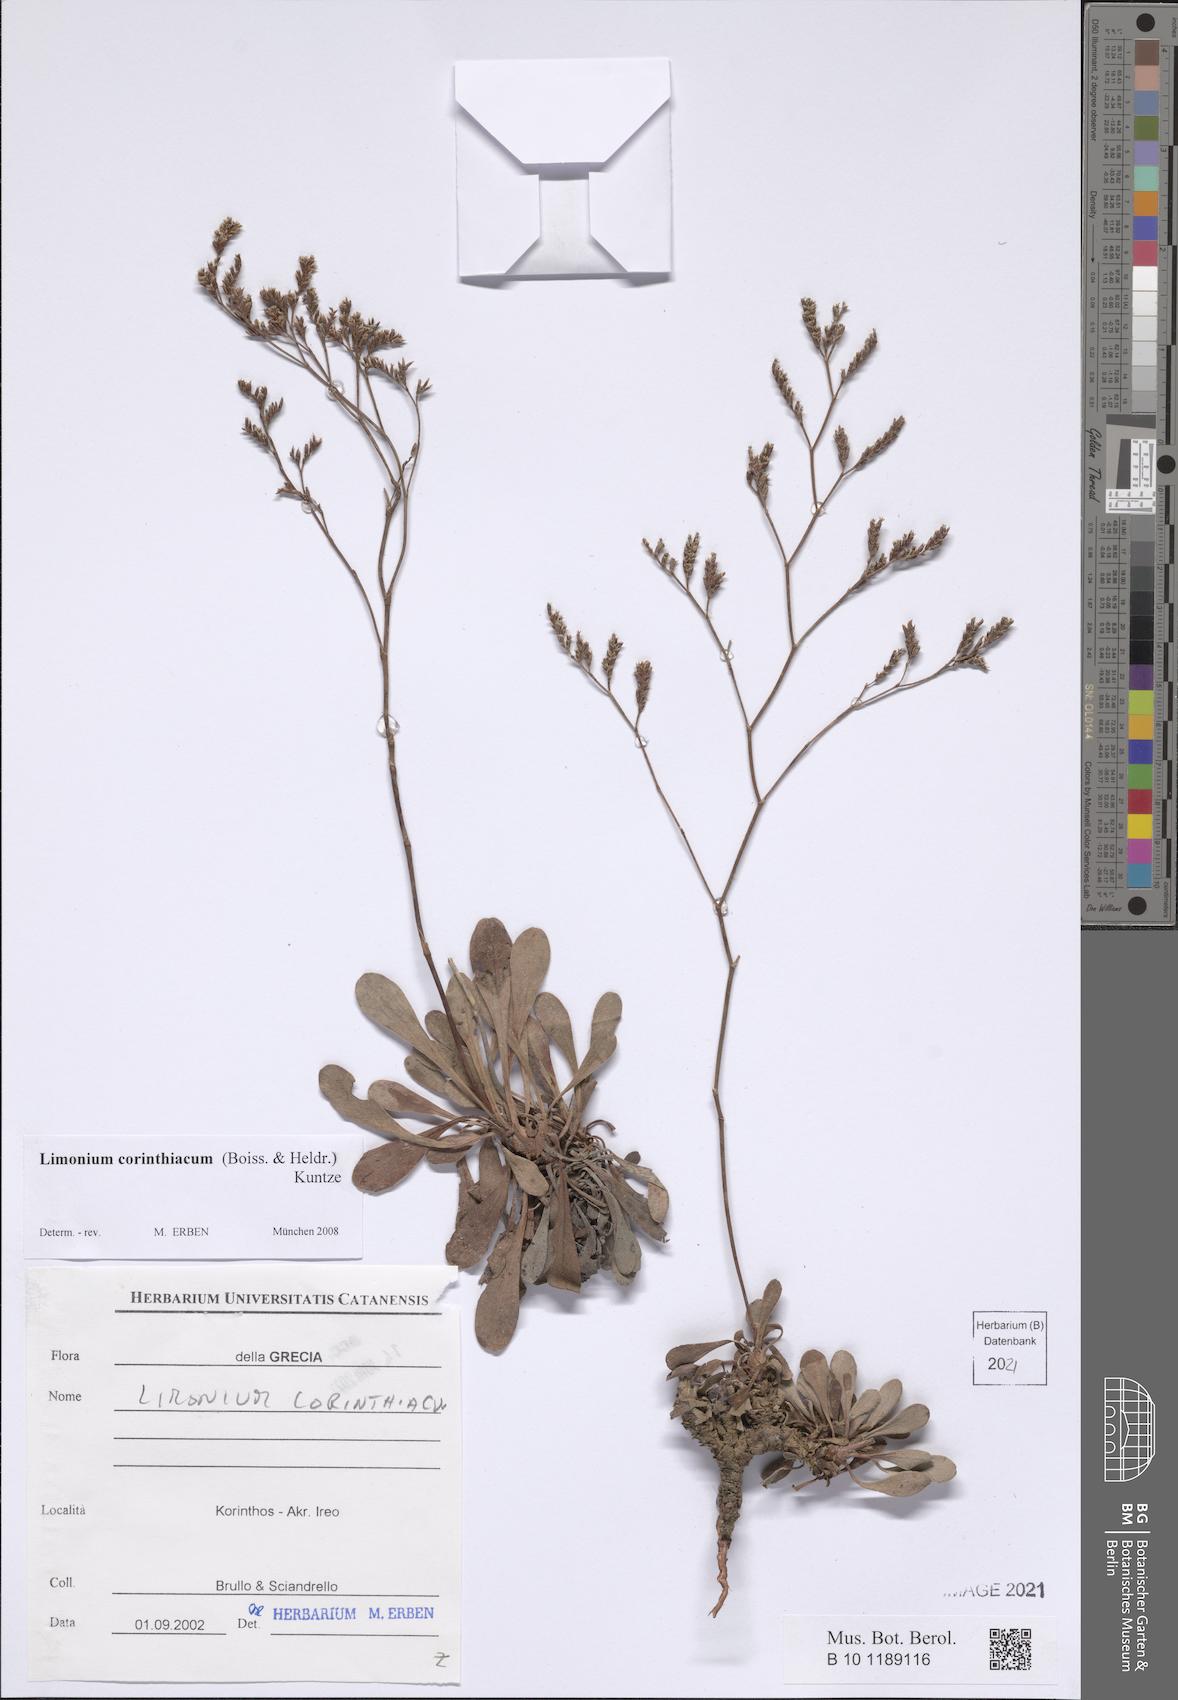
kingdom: Plantae
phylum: Tracheophyta
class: Magnoliopsida
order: Caryophyllales
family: Plumbaginaceae
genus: Limonium
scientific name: Limonium corinthiacum
